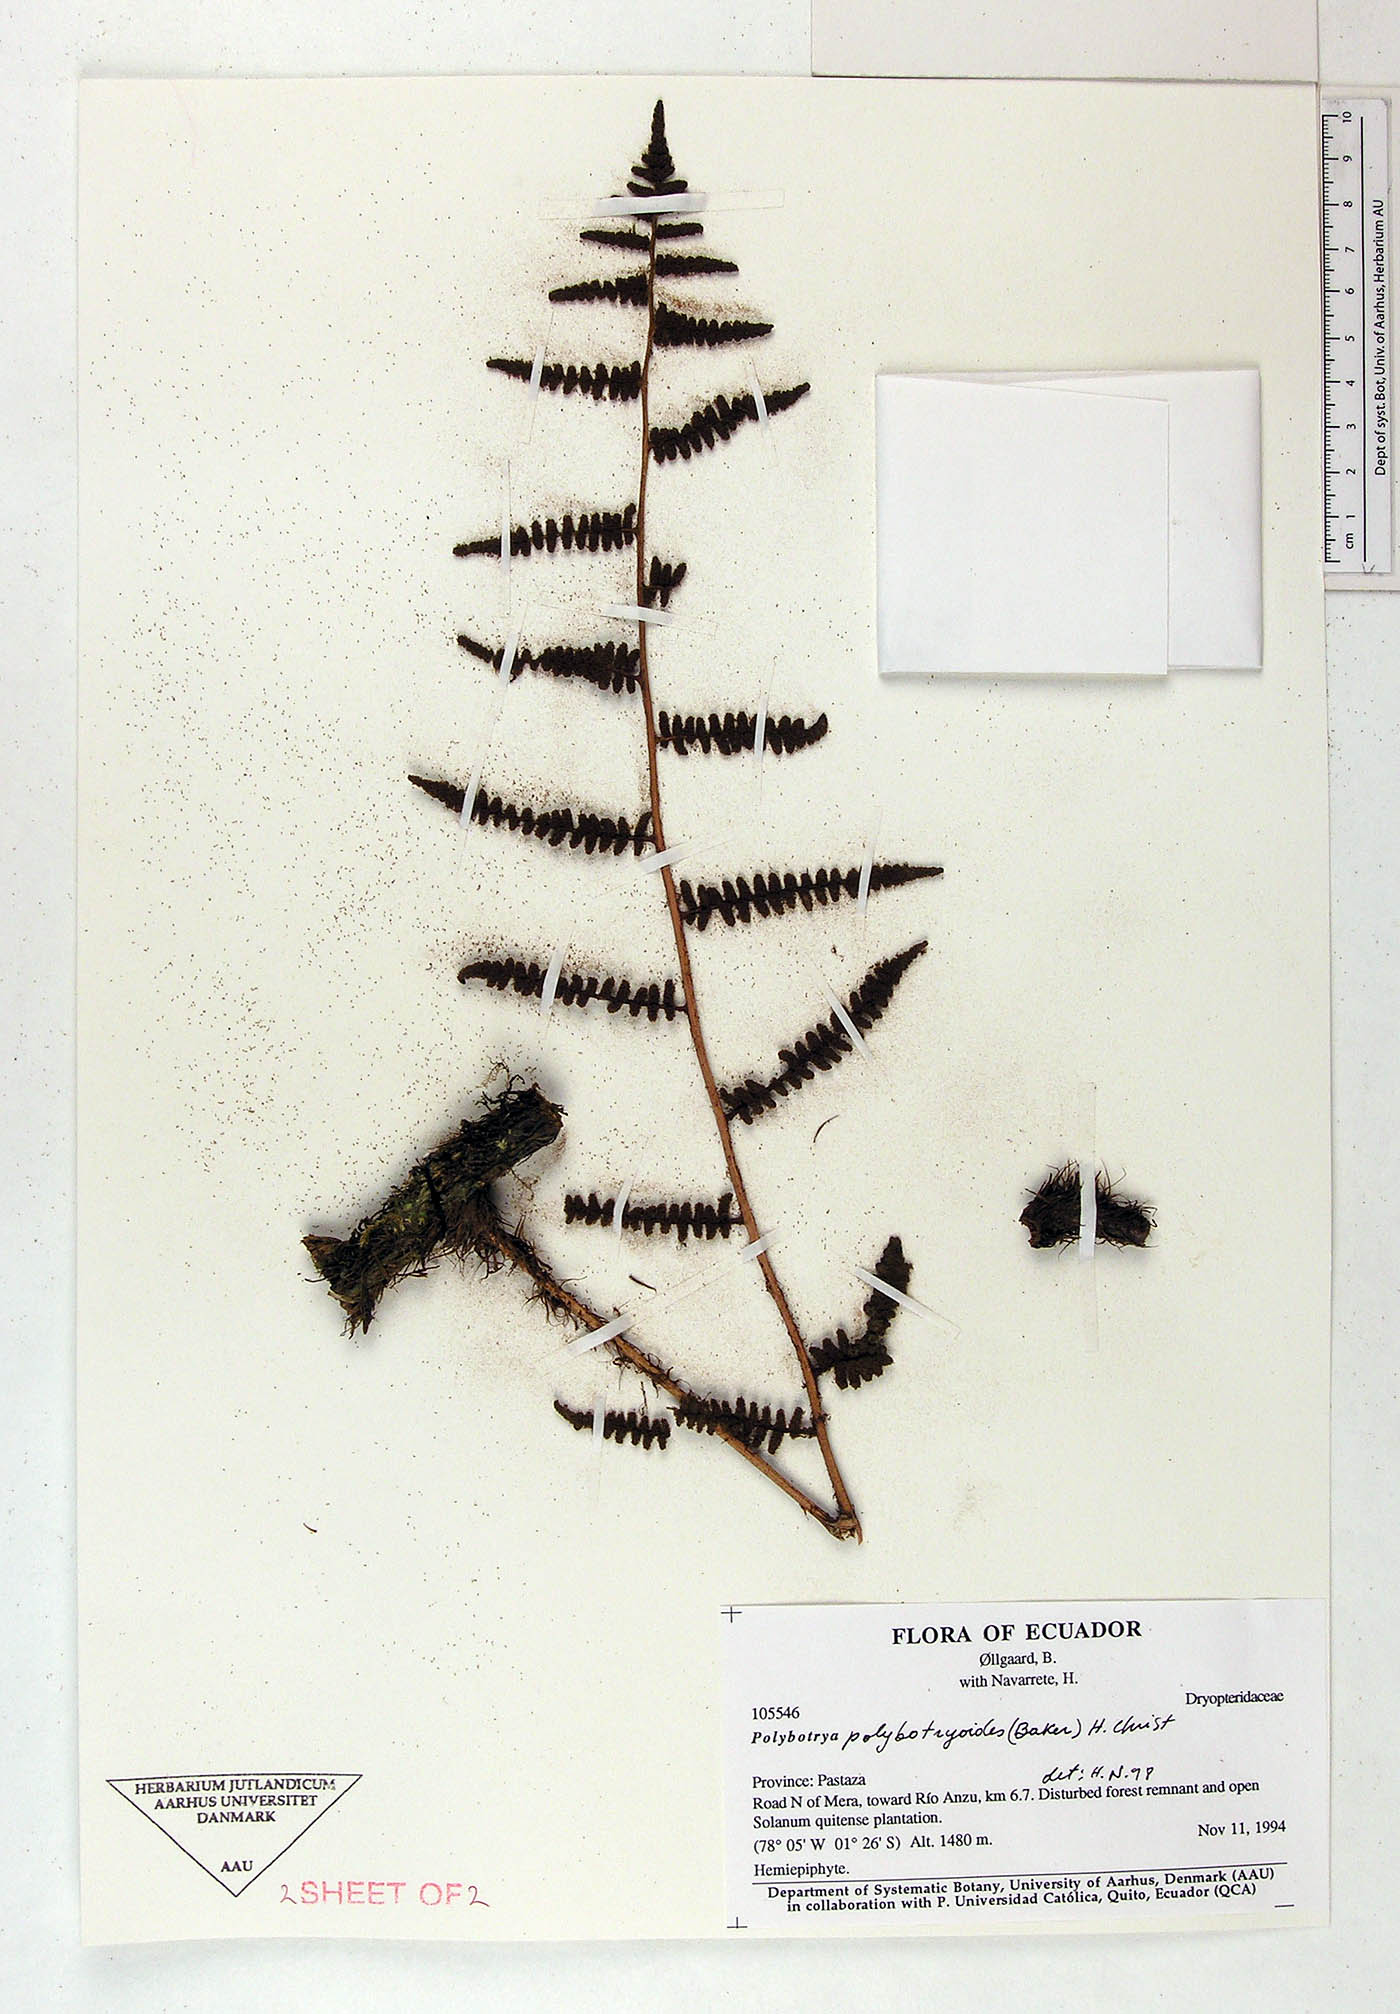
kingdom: Plantae
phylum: Tracheophyta
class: Polypodiopsida
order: Polypodiales
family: Dryopteridaceae
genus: Polybotrya
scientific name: Polybotrya polybotryoides
